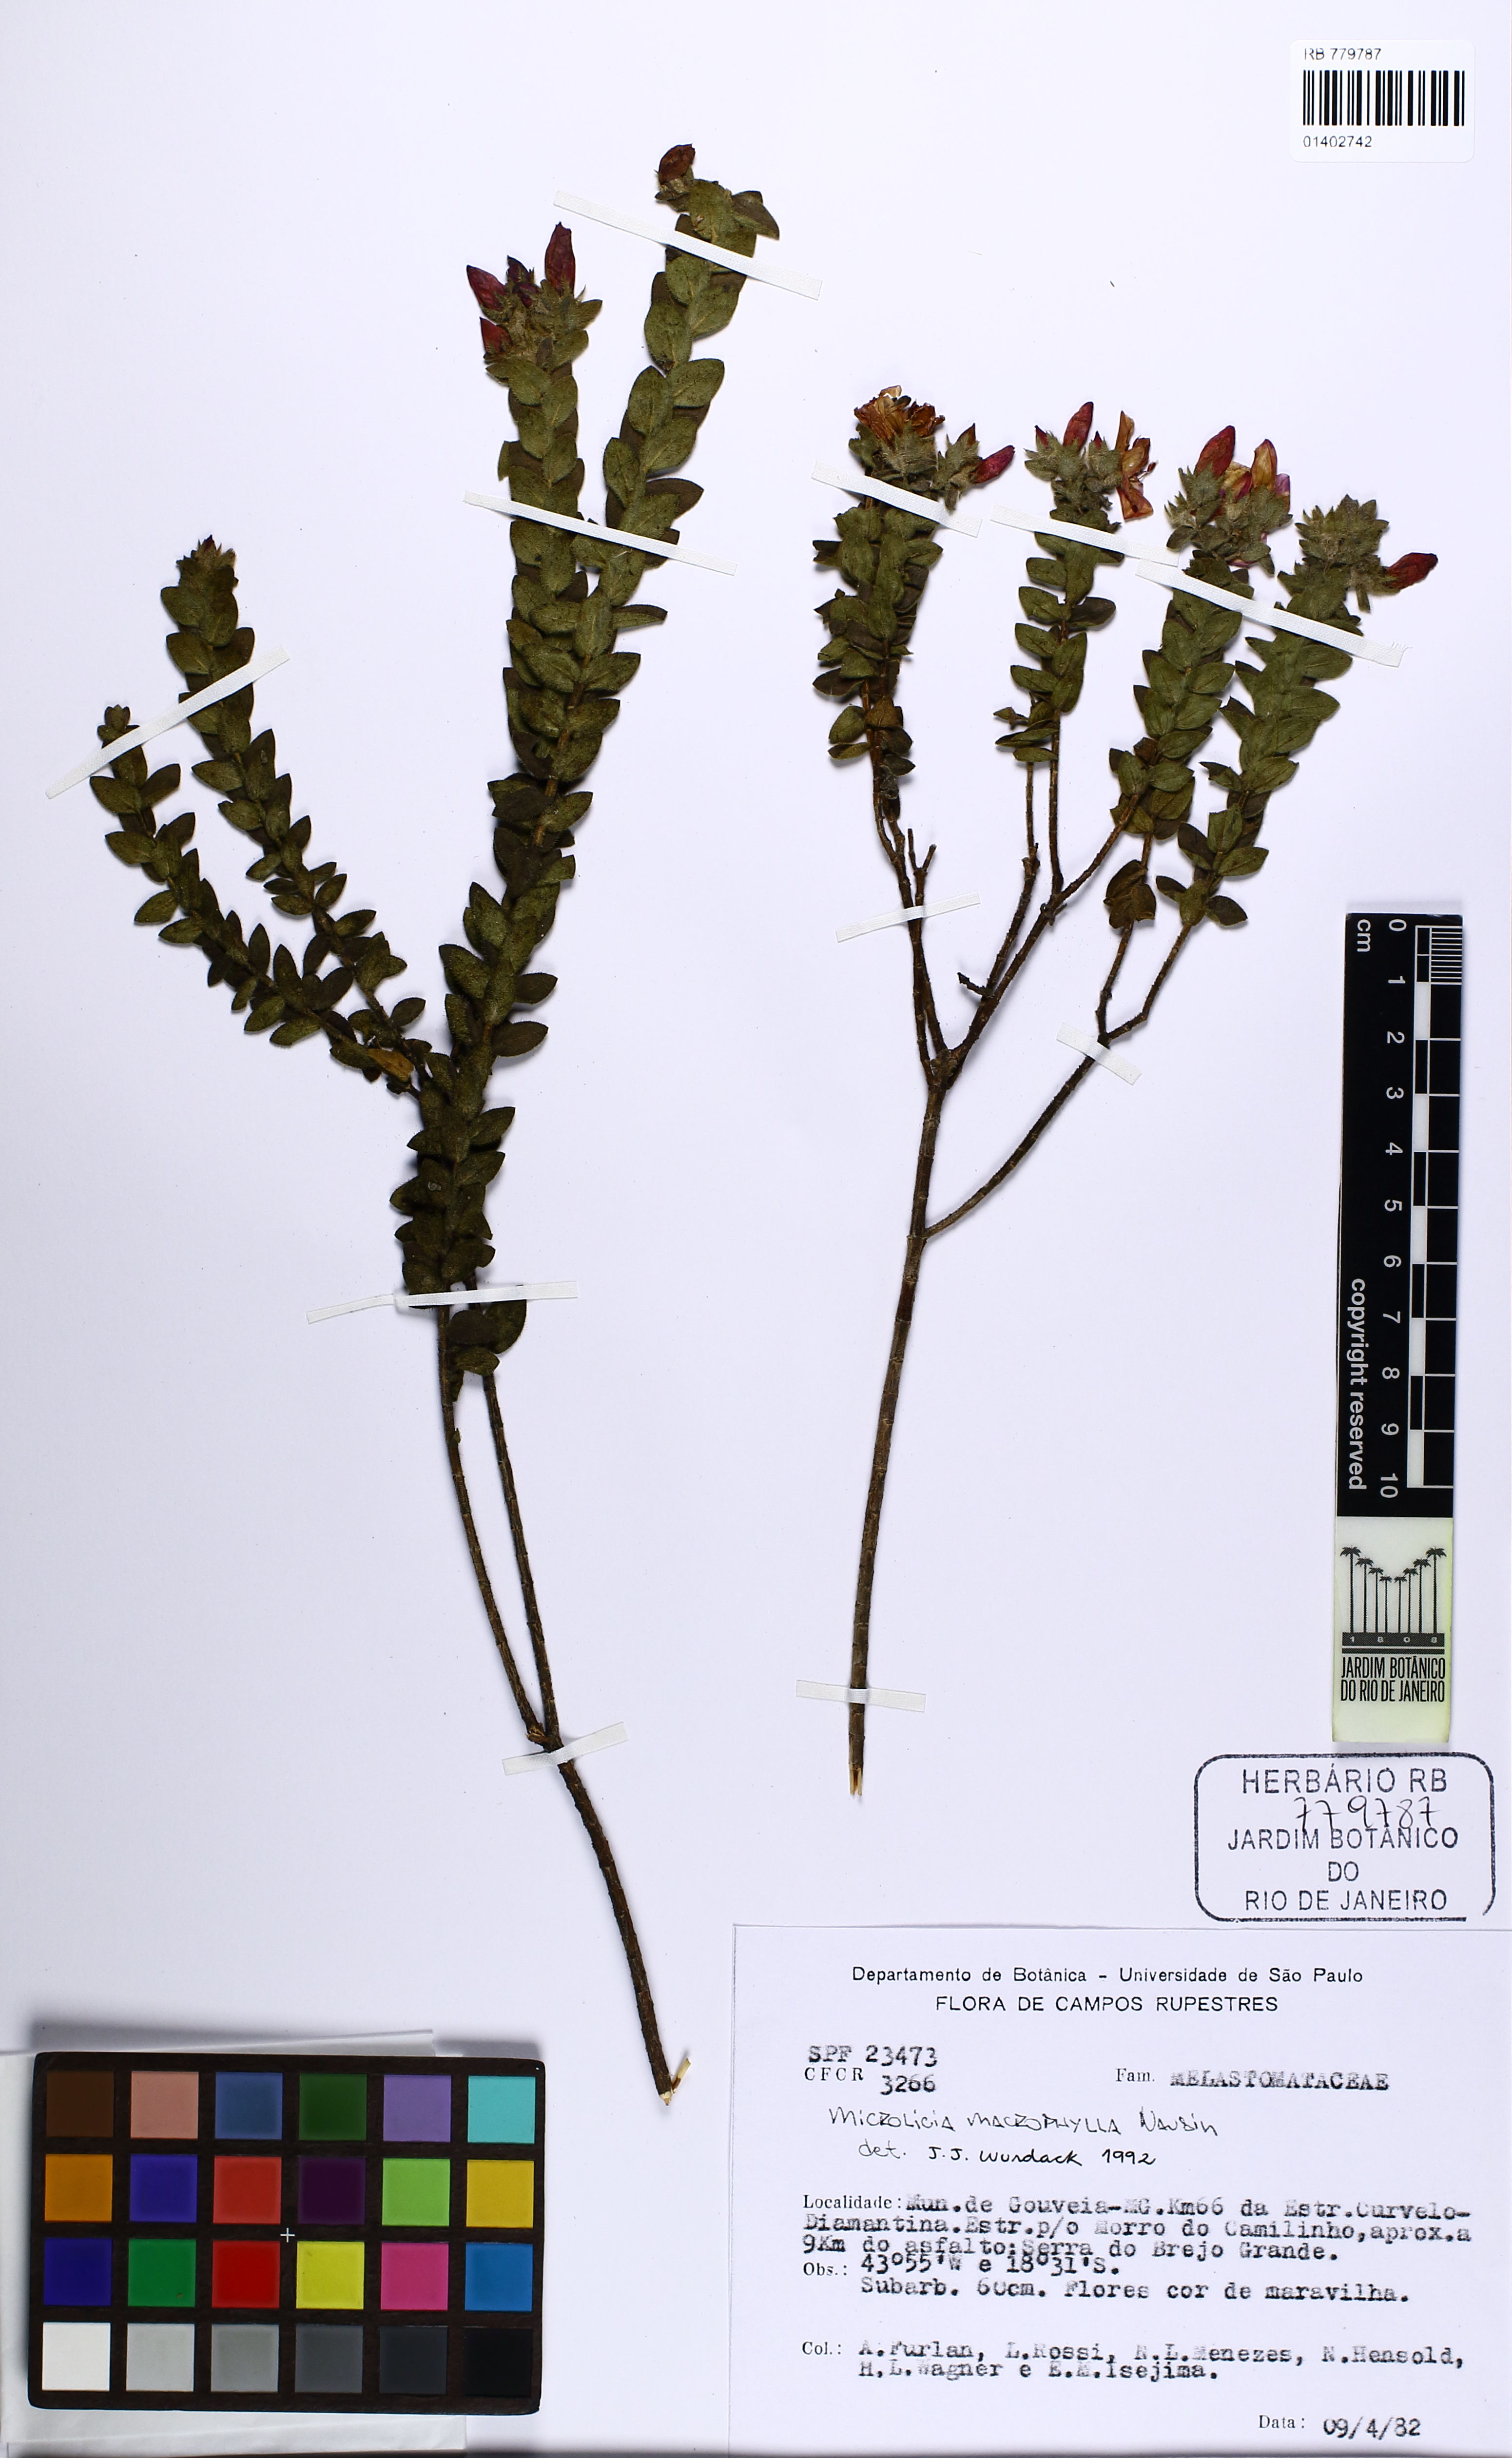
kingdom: Plantae
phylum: Tracheophyta
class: Magnoliopsida
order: Myrtales
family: Melastomataceae
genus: Microlicia
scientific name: Microlicia macrophylla
